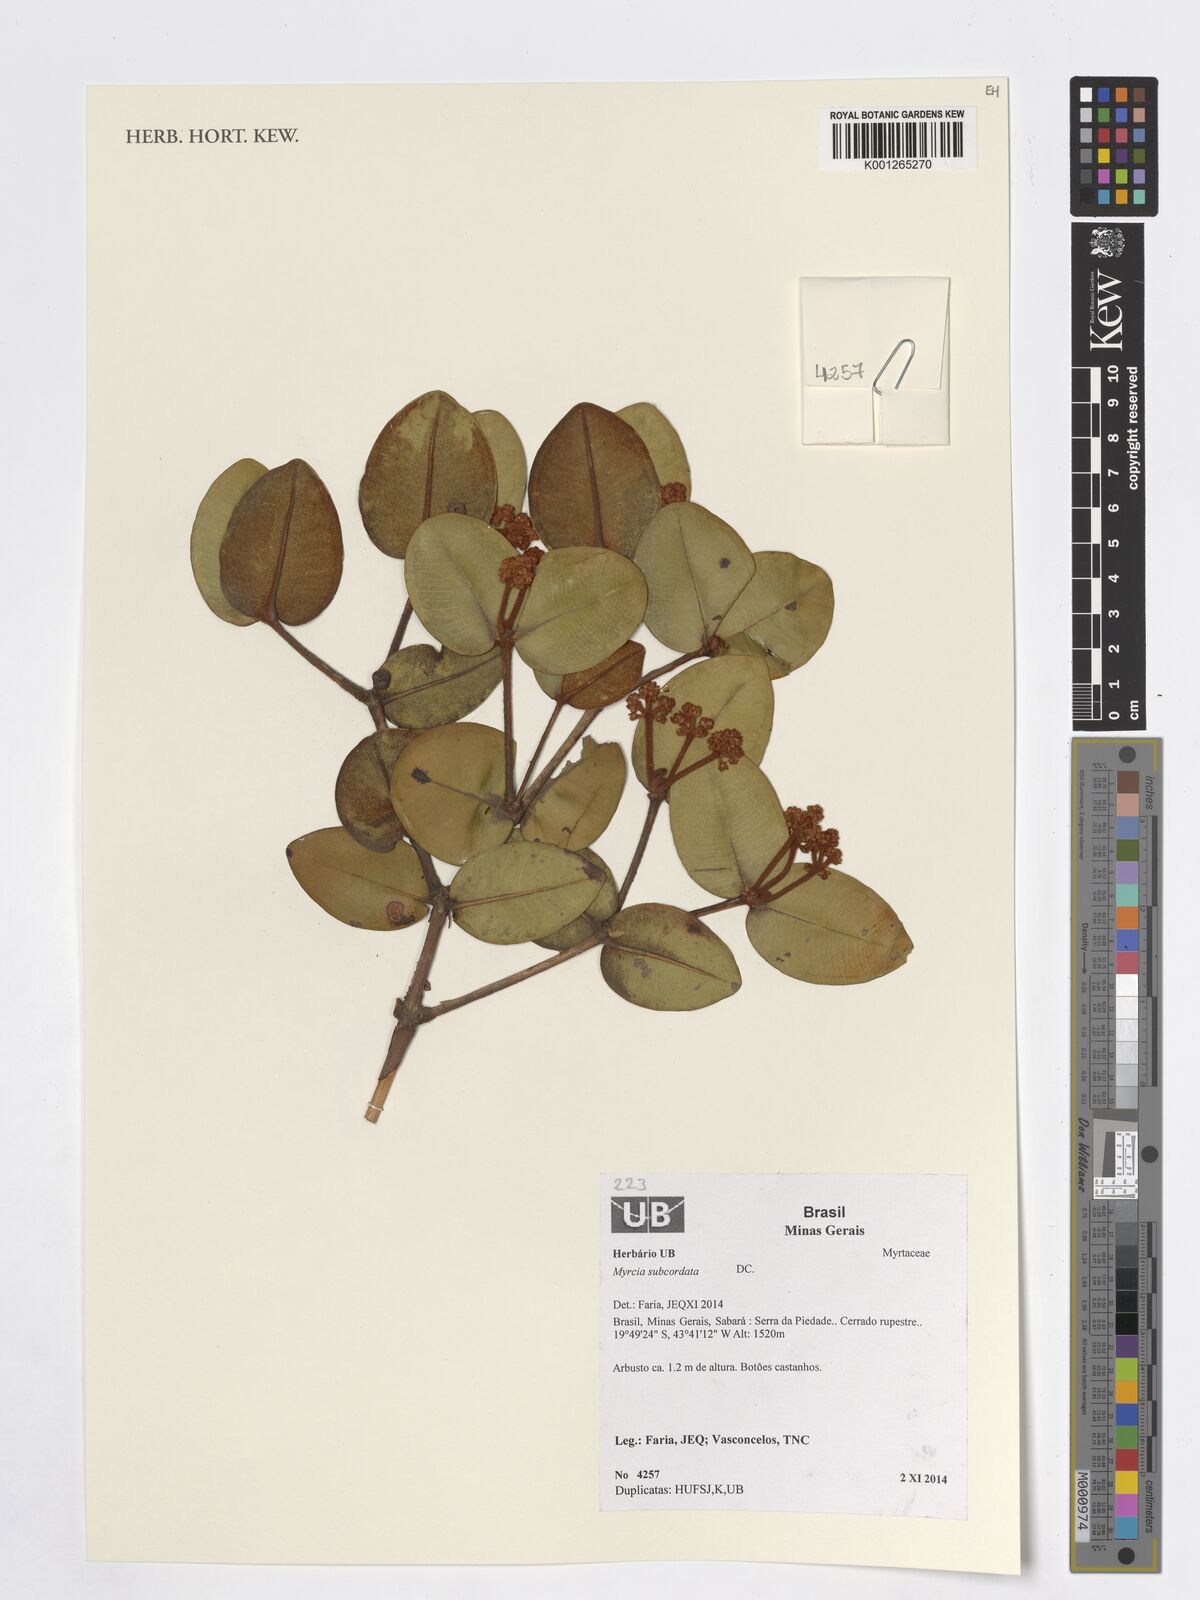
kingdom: Plantae
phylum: Tracheophyta
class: Magnoliopsida
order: Myrtales
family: Myrtaceae
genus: Myrcia
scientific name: Myrcia subcordata
